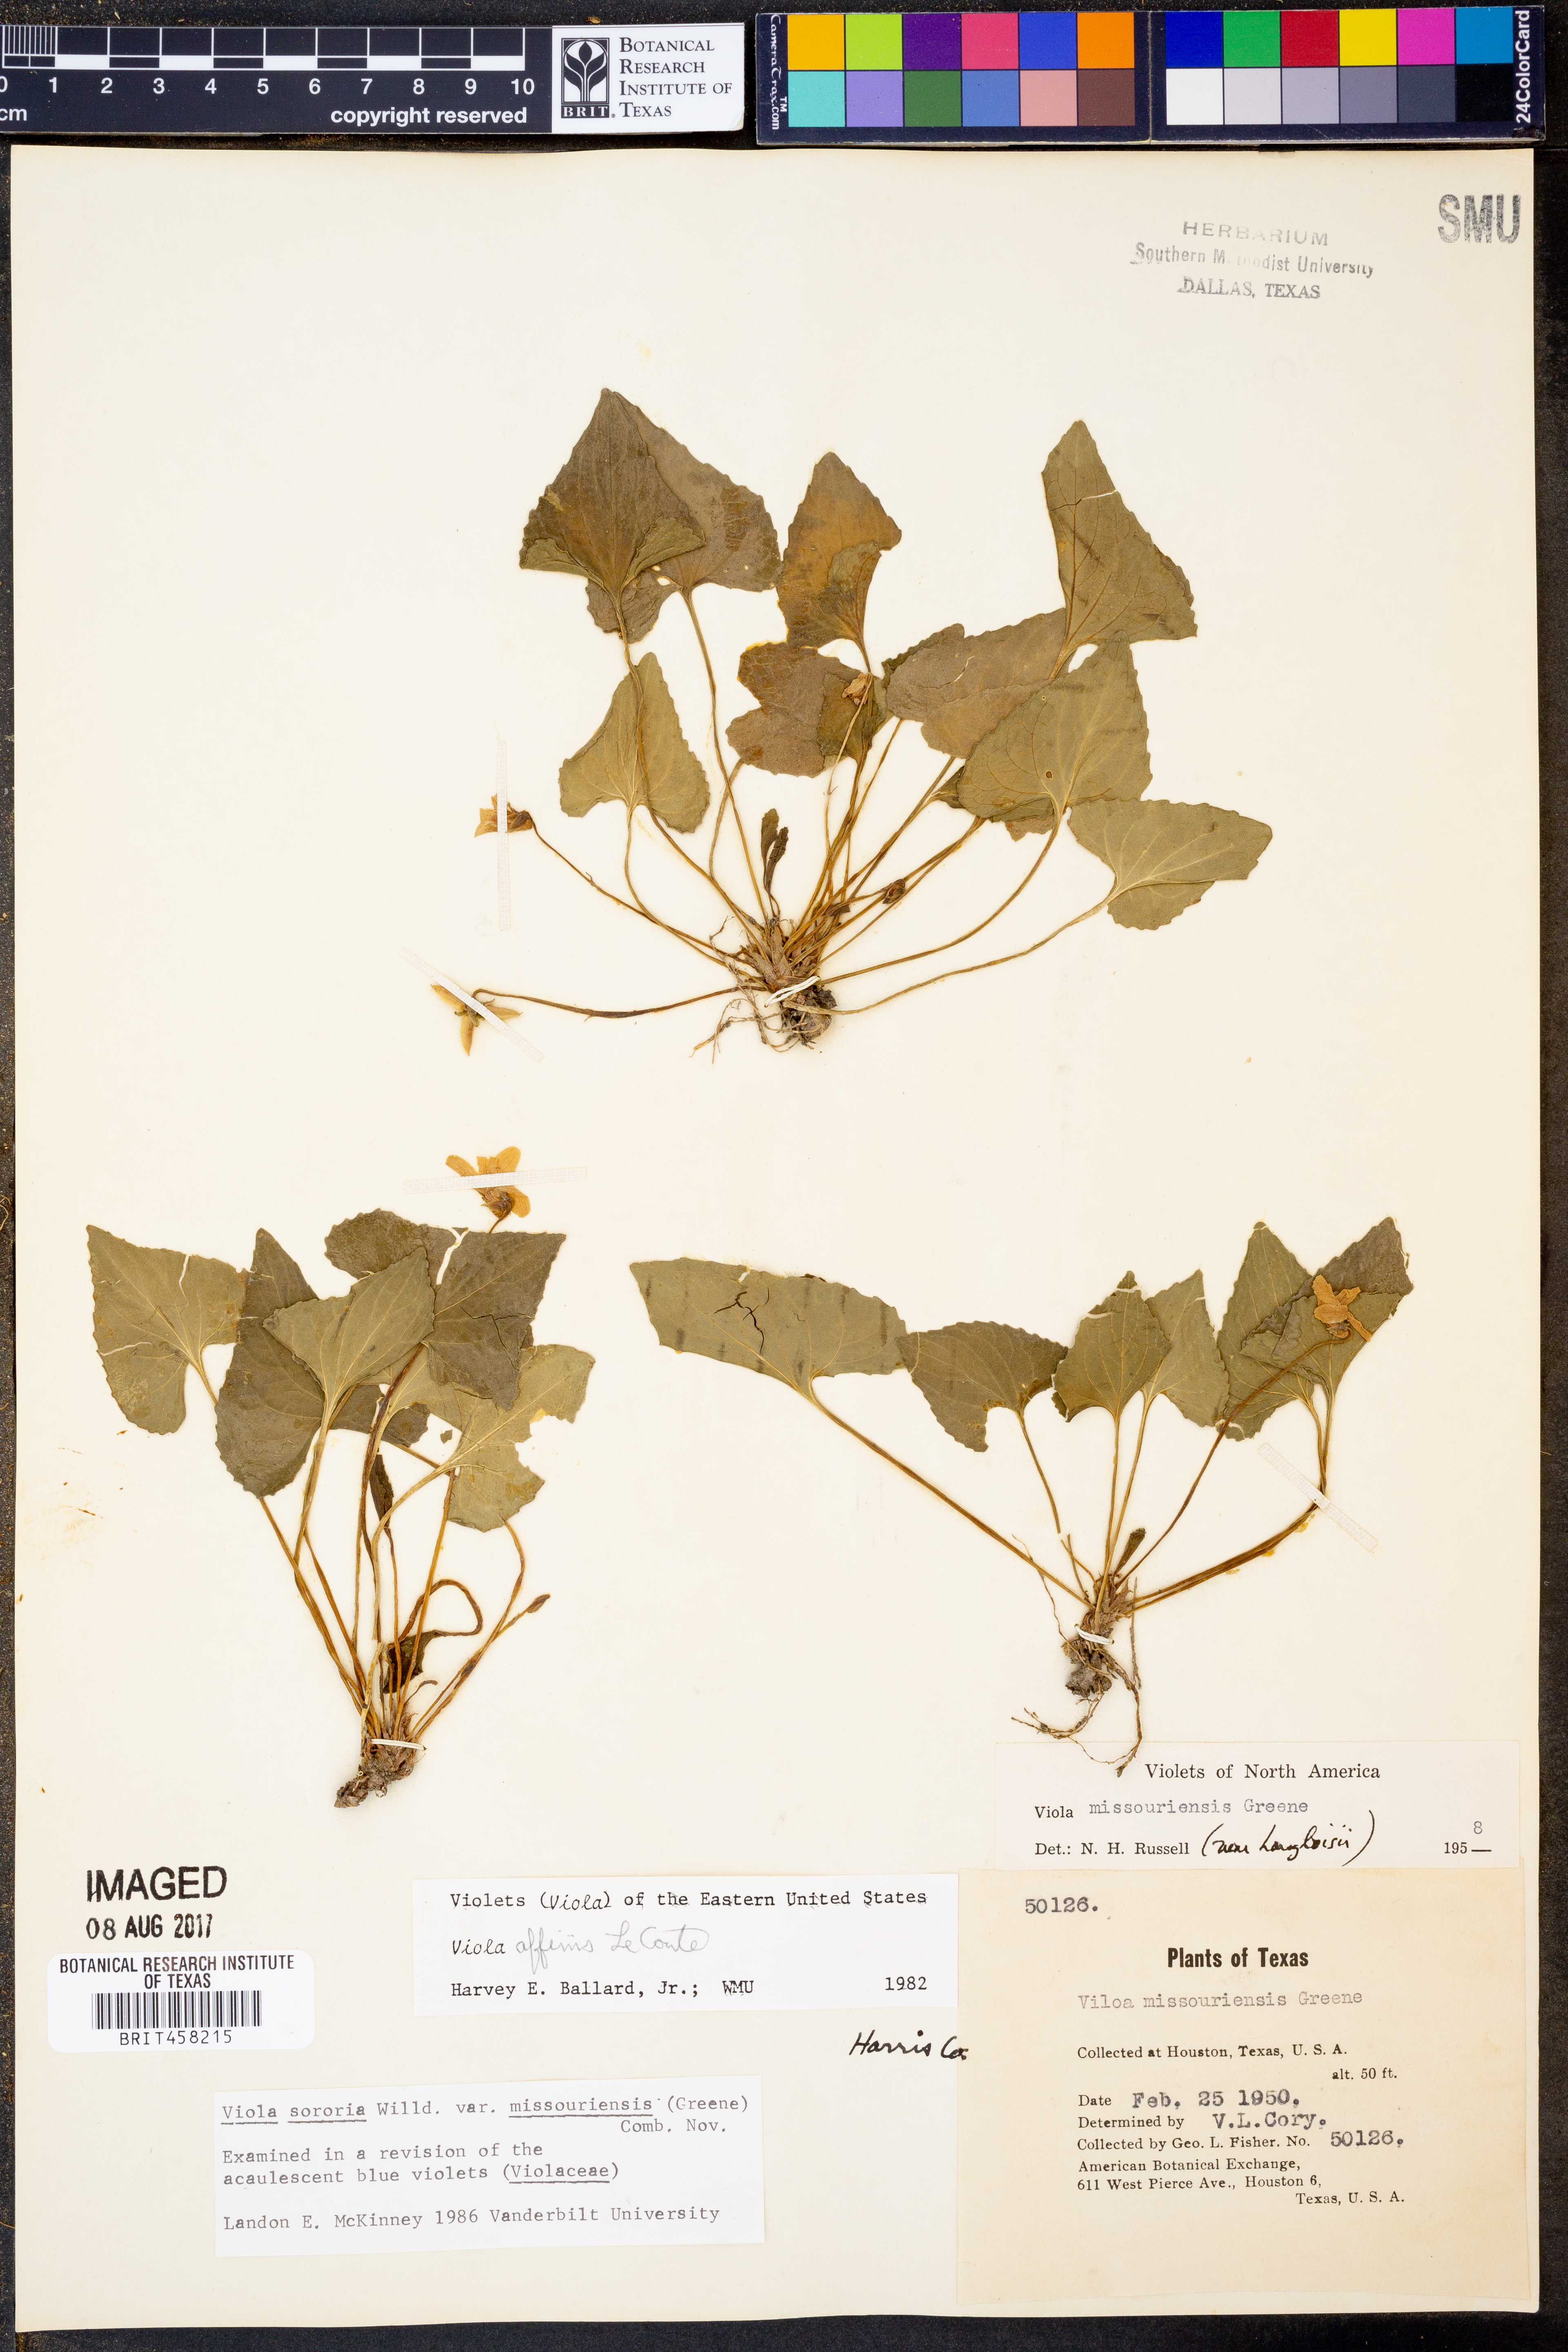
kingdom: Plantae
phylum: Tracheophyta
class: Magnoliopsida
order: Malpighiales
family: Violaceae
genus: Viola
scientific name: Viola missouriensis
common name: Missouri violet
